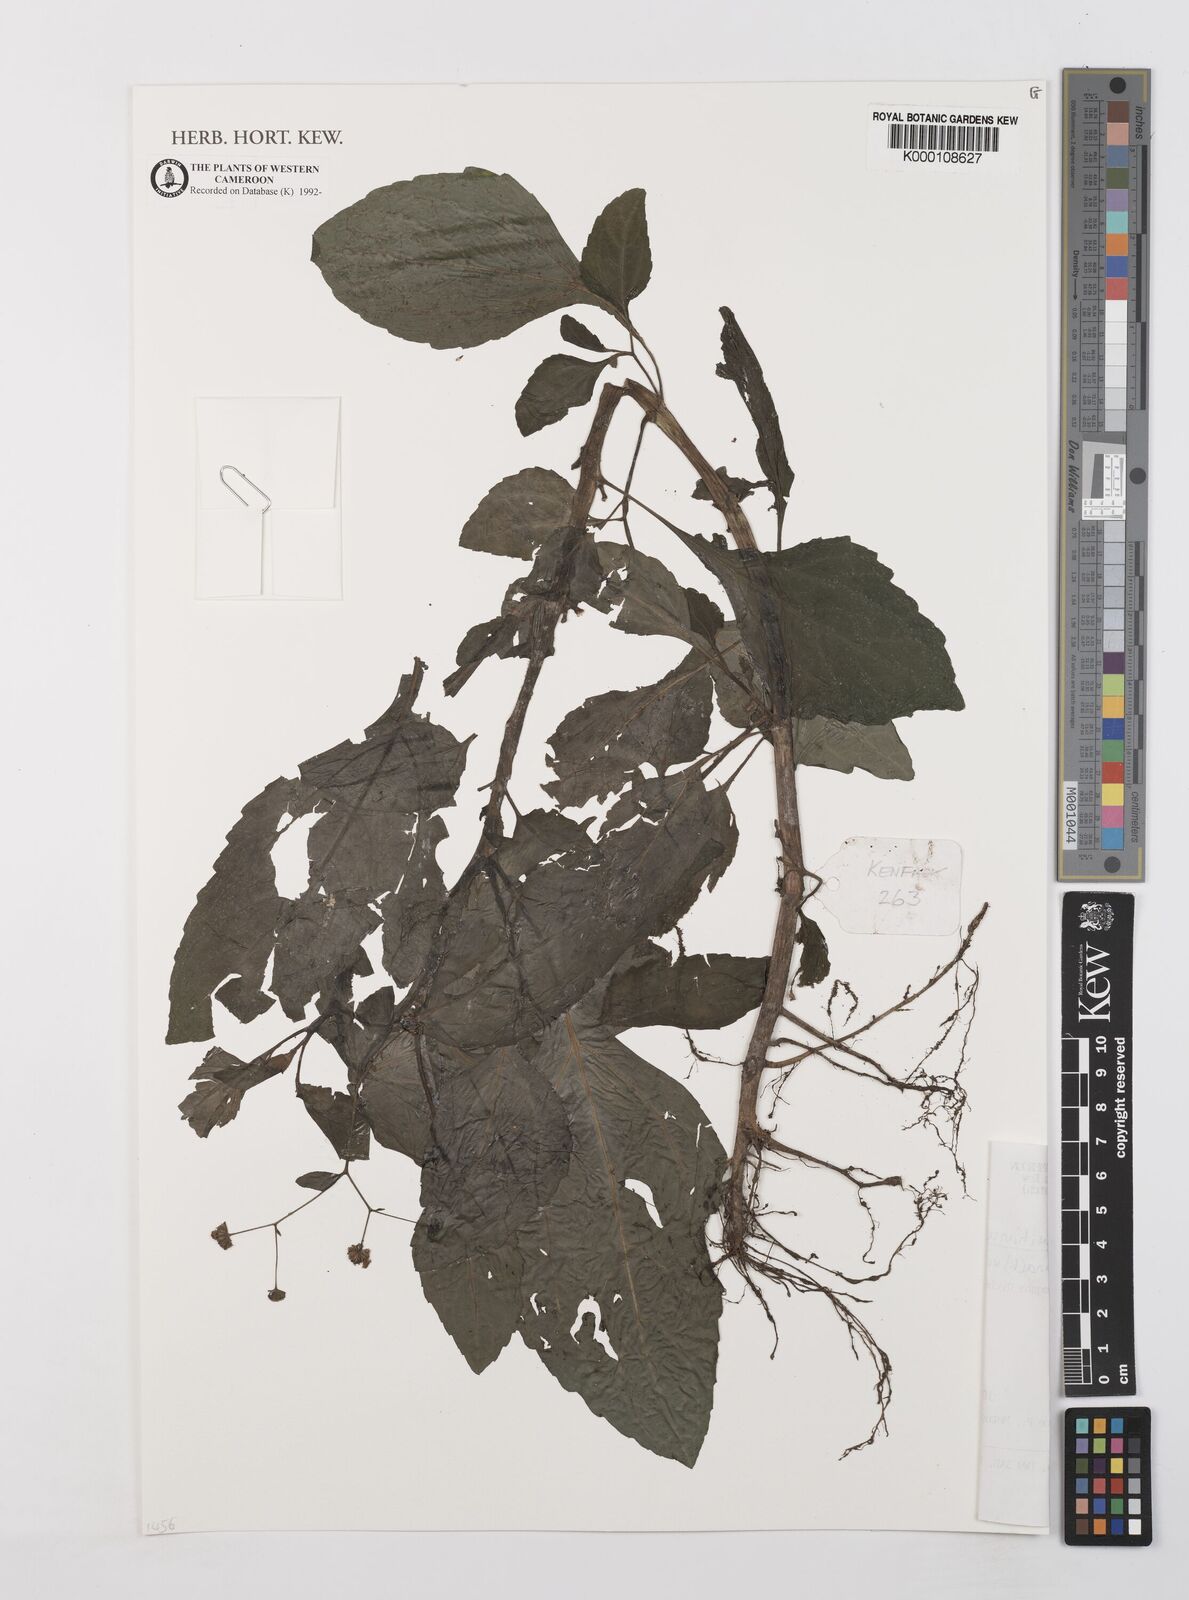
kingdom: Plantae
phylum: Tracheophyta
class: Magnoliopsida
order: Asterales
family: Asteraceae
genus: Adenostemma
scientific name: Adenostemma mauritianum
